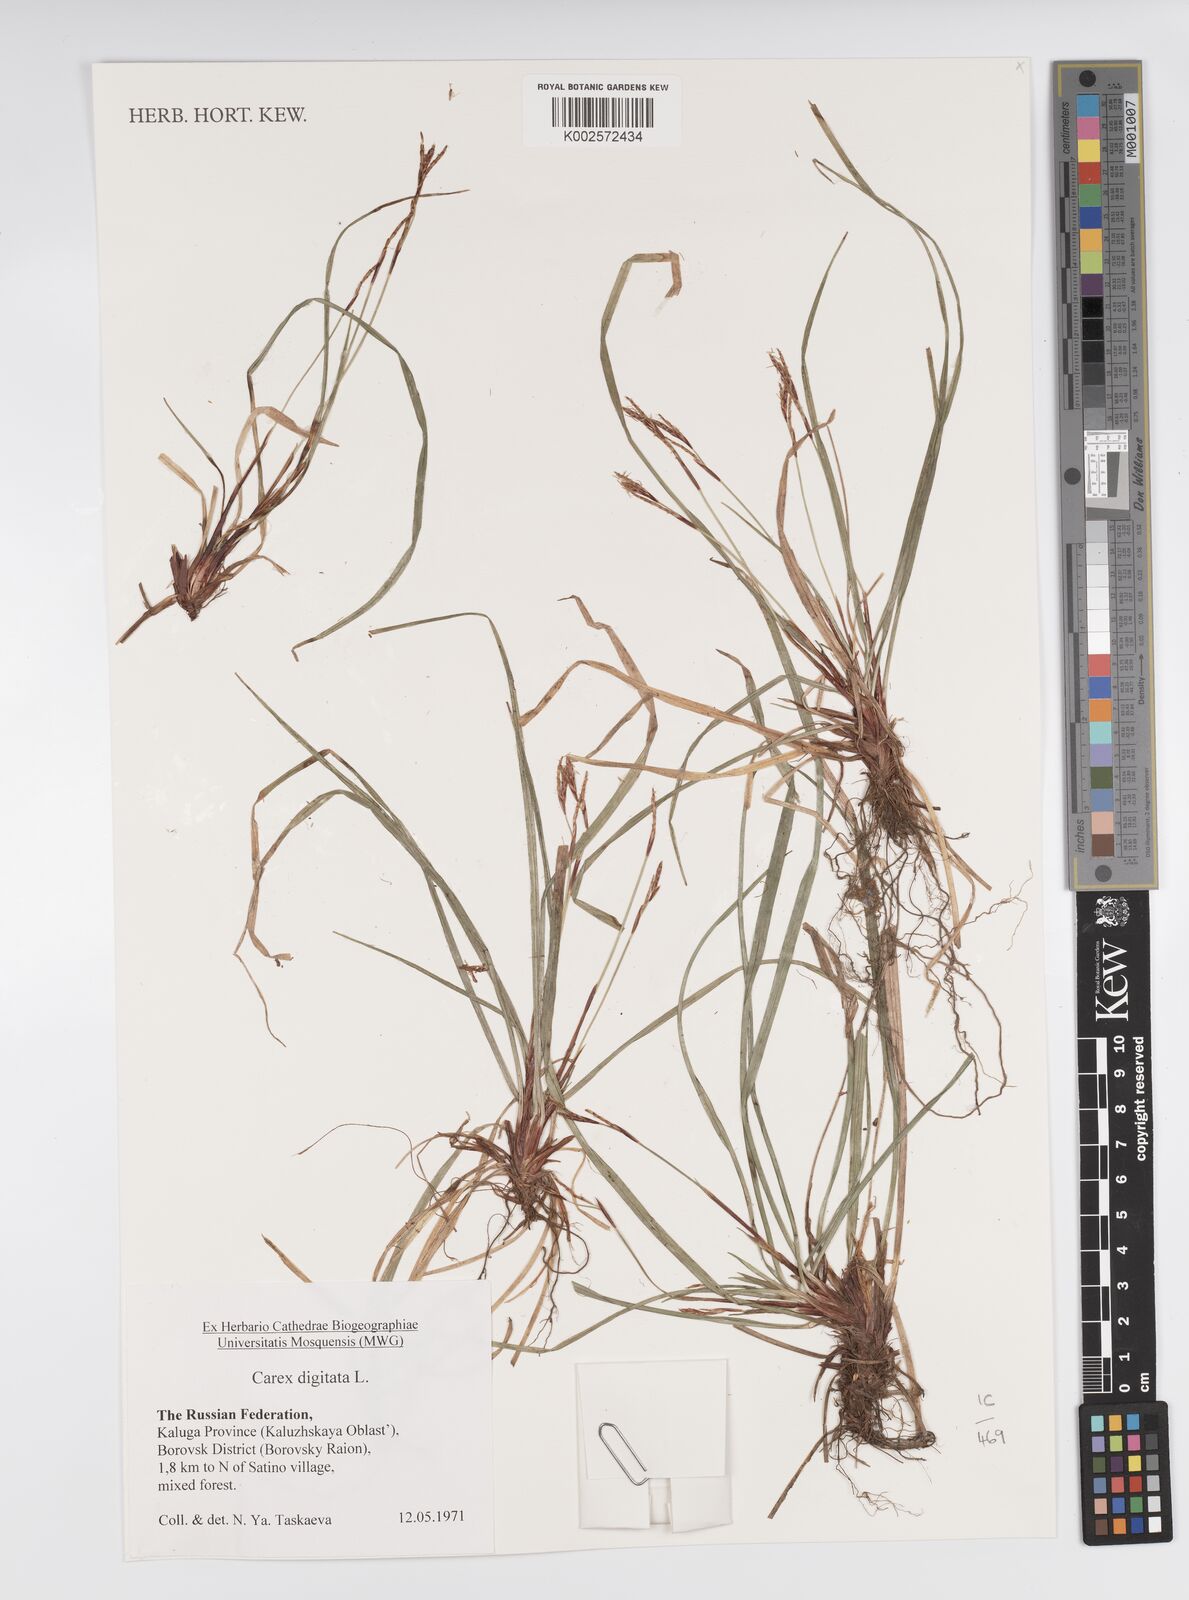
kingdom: Plantae
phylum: Tracheophyta
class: Liliopsida
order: Poales
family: Cyperaceae
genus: Carex
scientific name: Carex digitata
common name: Fingered sedge
